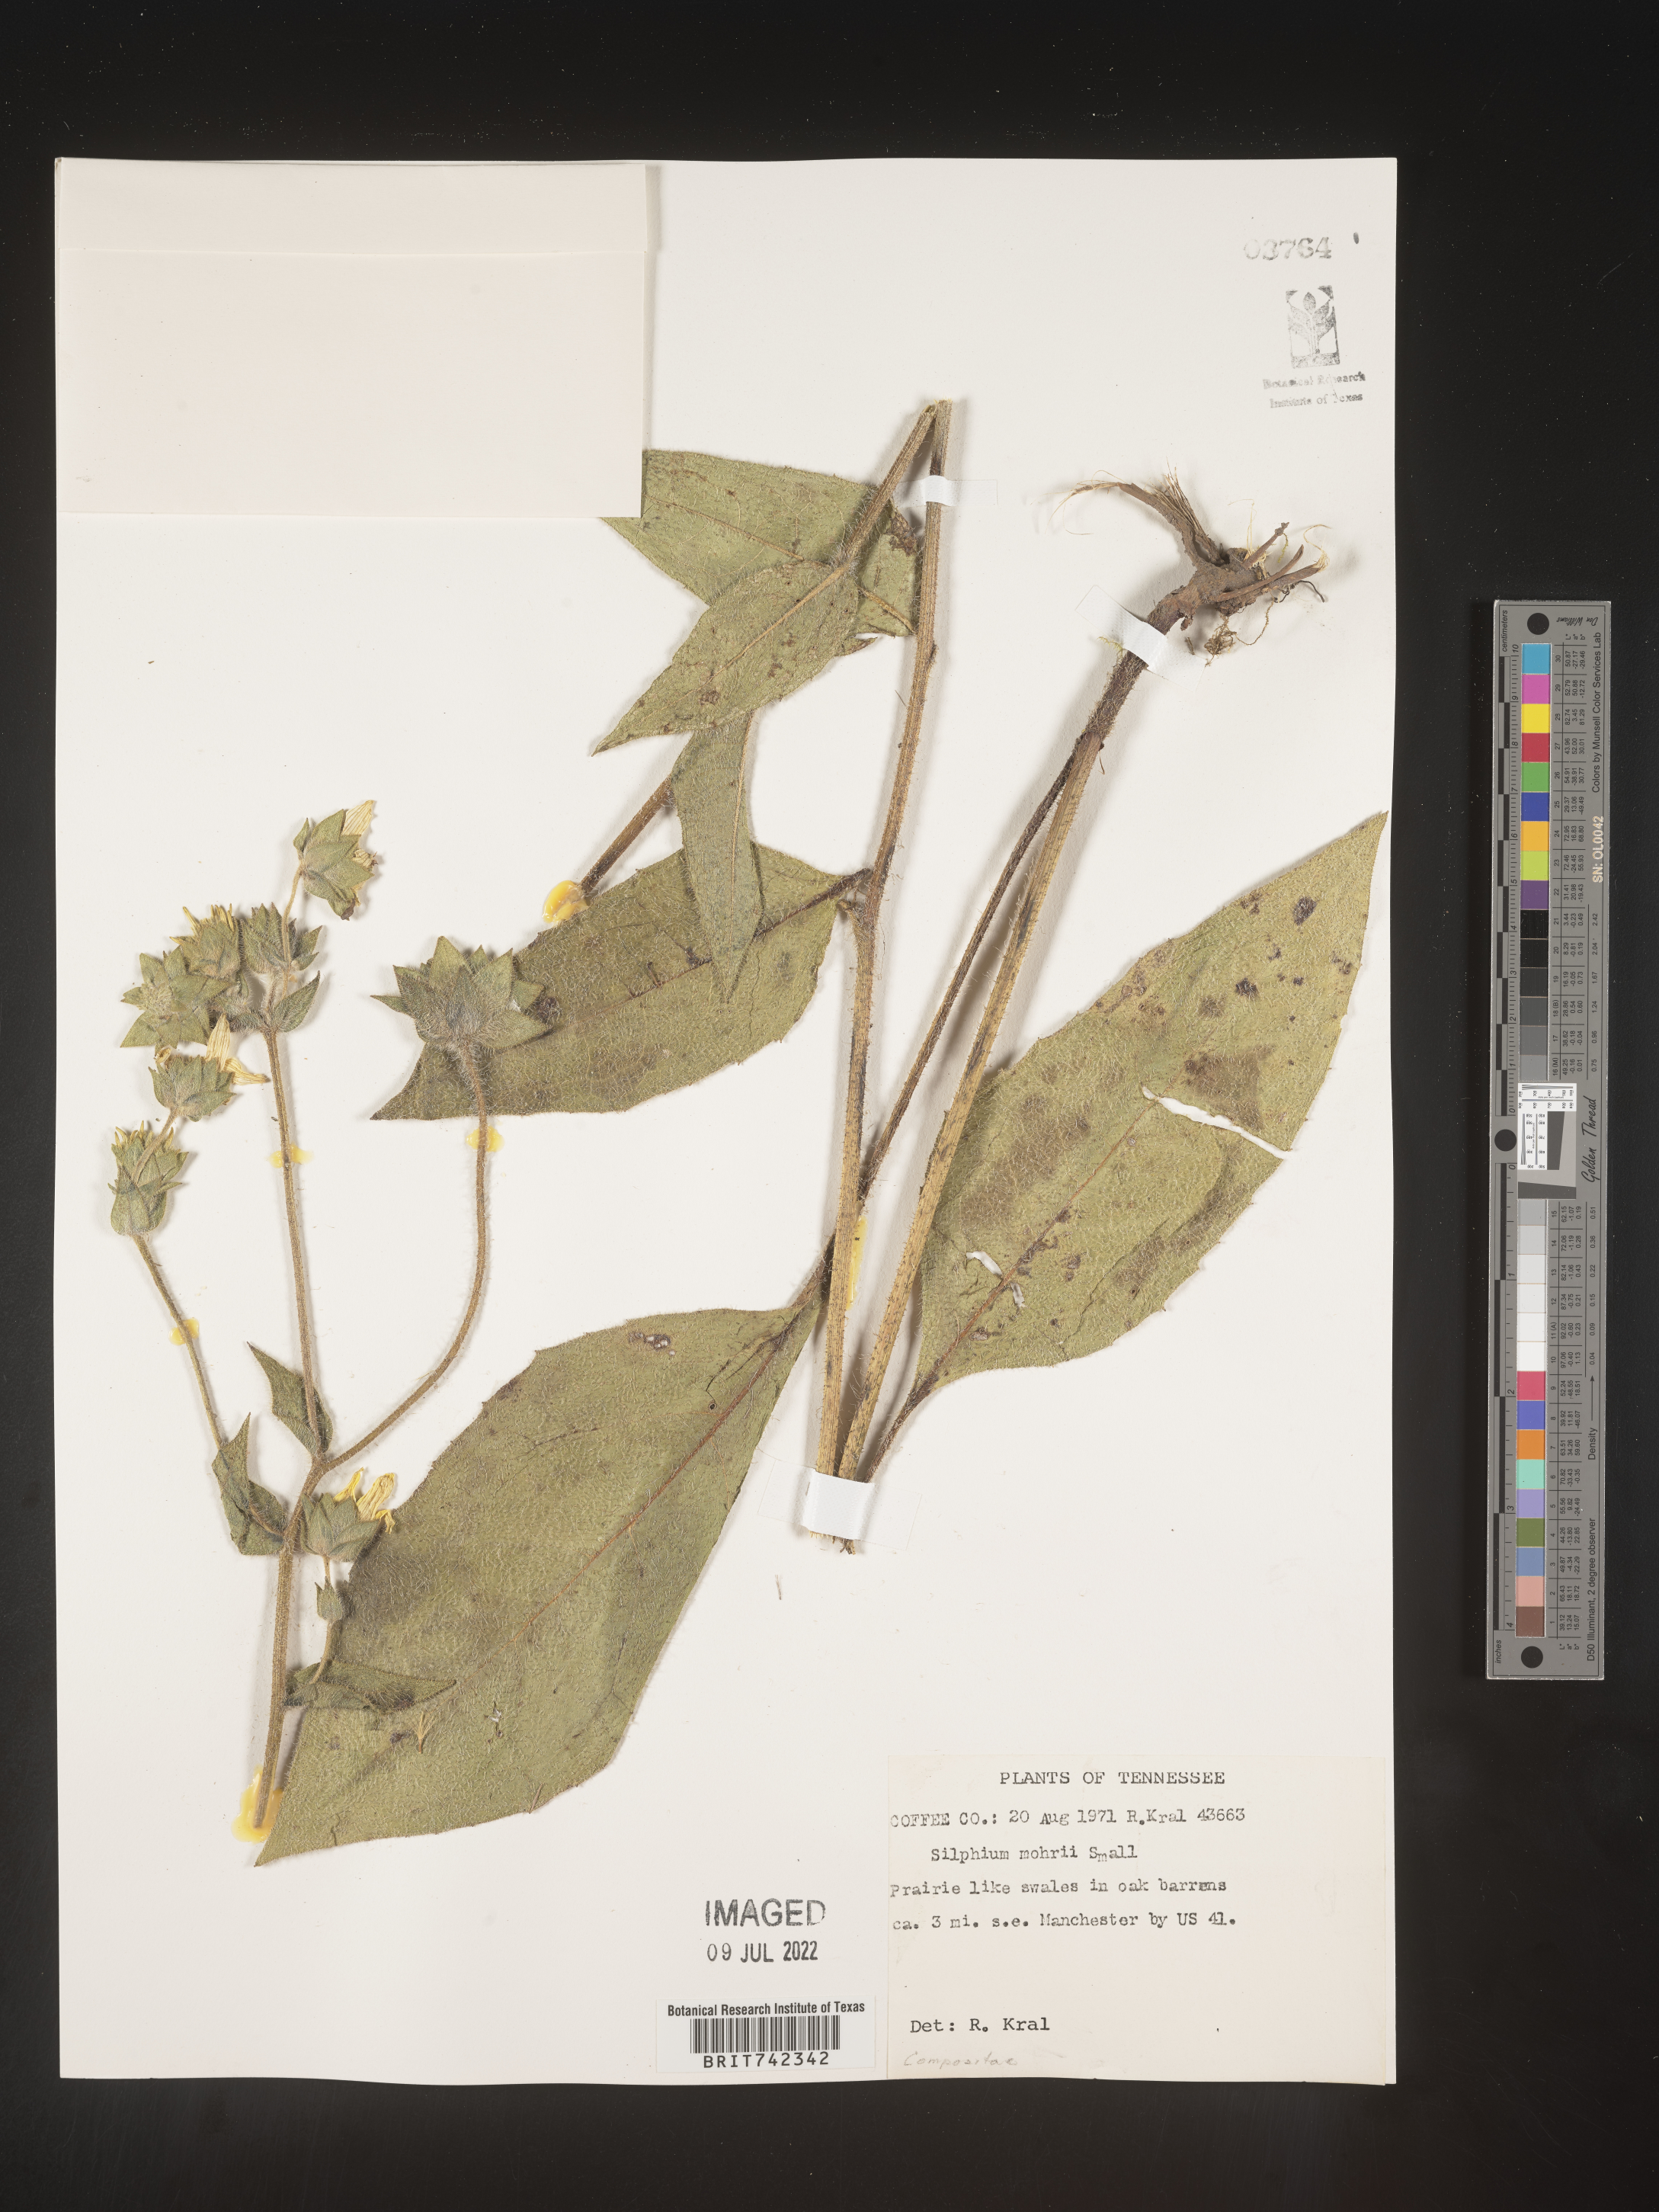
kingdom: Plantae
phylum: Tracheophyta
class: Magnoliopsida
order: Asterales
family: Asteraceae
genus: Silphium
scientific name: Silphium mohrii
